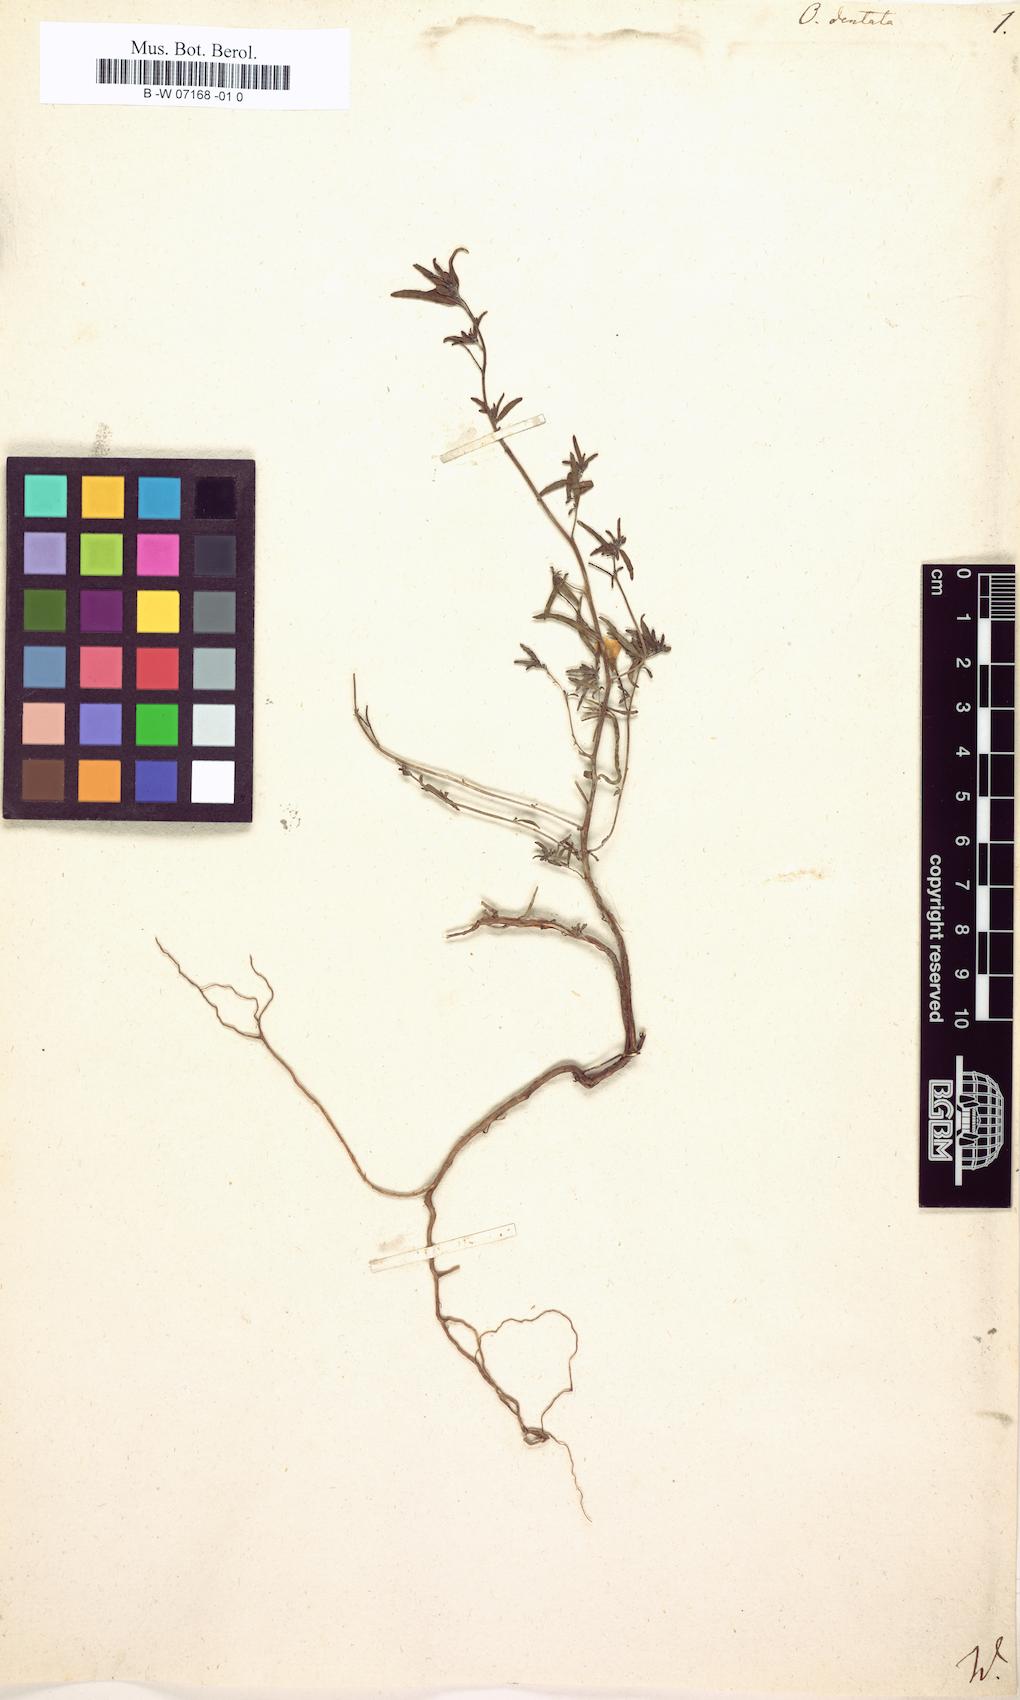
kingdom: Plantae
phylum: Tracheophyta
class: Magnoliopsida
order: Myrtales
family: Onagraceae
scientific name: Onagraceae
